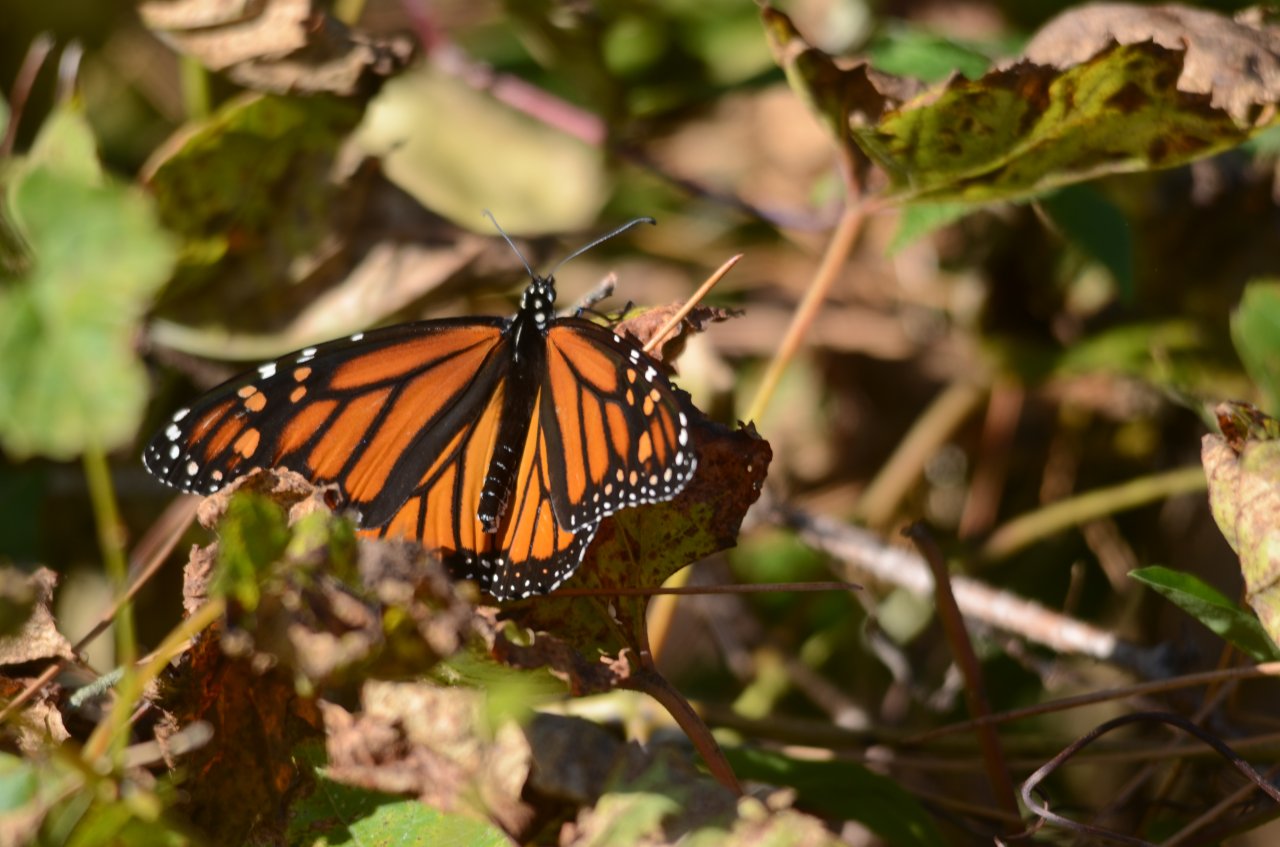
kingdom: Animalia
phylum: Arthropoda
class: Insecta
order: Lepidoptera
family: Nymphalidae
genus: Danaus
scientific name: Danaus plexippus
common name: Monarch
